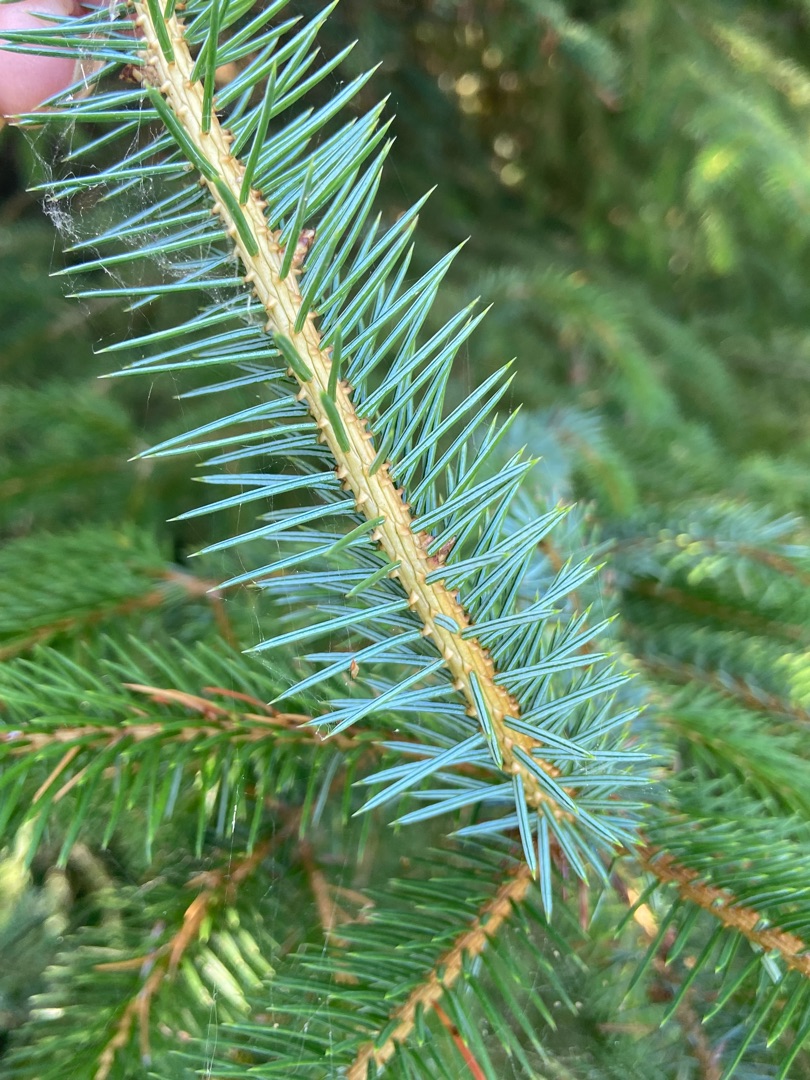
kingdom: Plantae
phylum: Tracheophyta
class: Pinopsida
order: Pinales
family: Pinaceae
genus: Picea
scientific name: Picea sitchensis
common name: Sitka-gran
